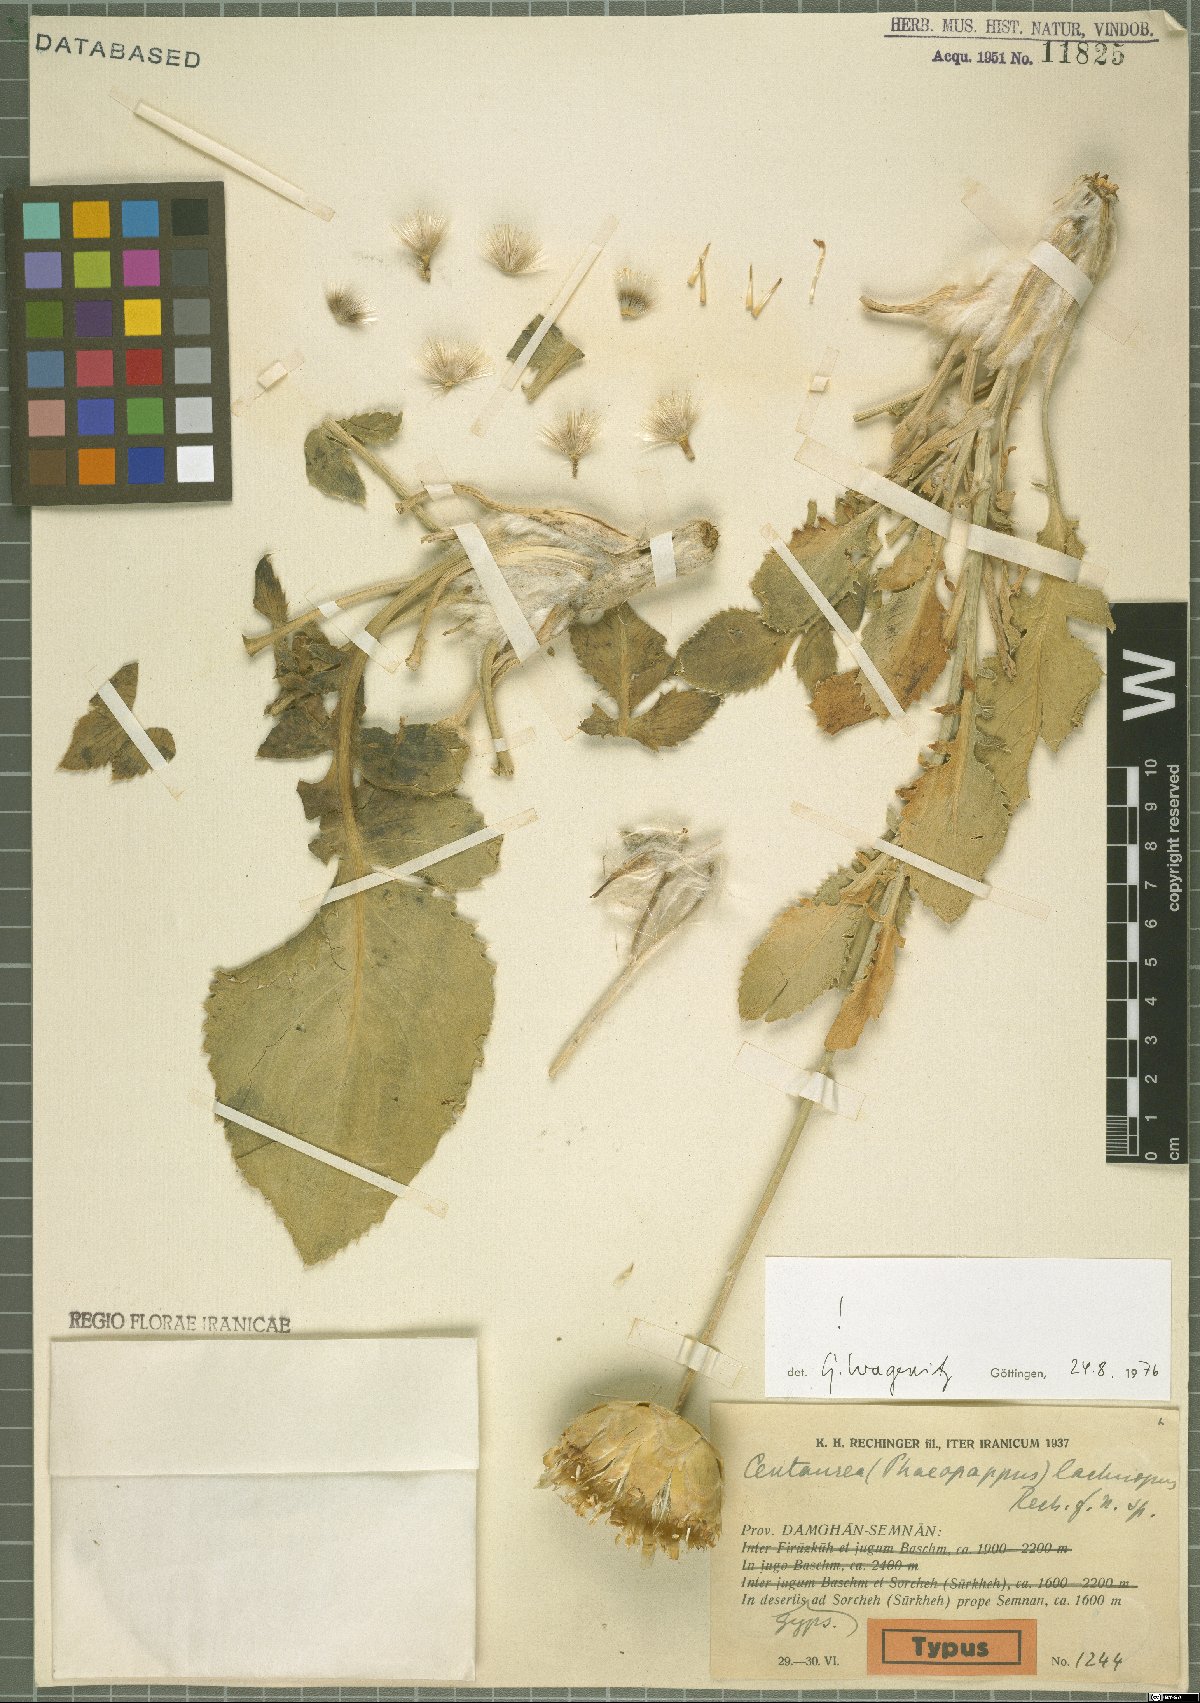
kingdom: Plantae
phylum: Tracheophyta
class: Magnoliopsida
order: Asterales
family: Asteraceae
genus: Rhaponticoides
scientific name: Rhaponticoides lachnopus
